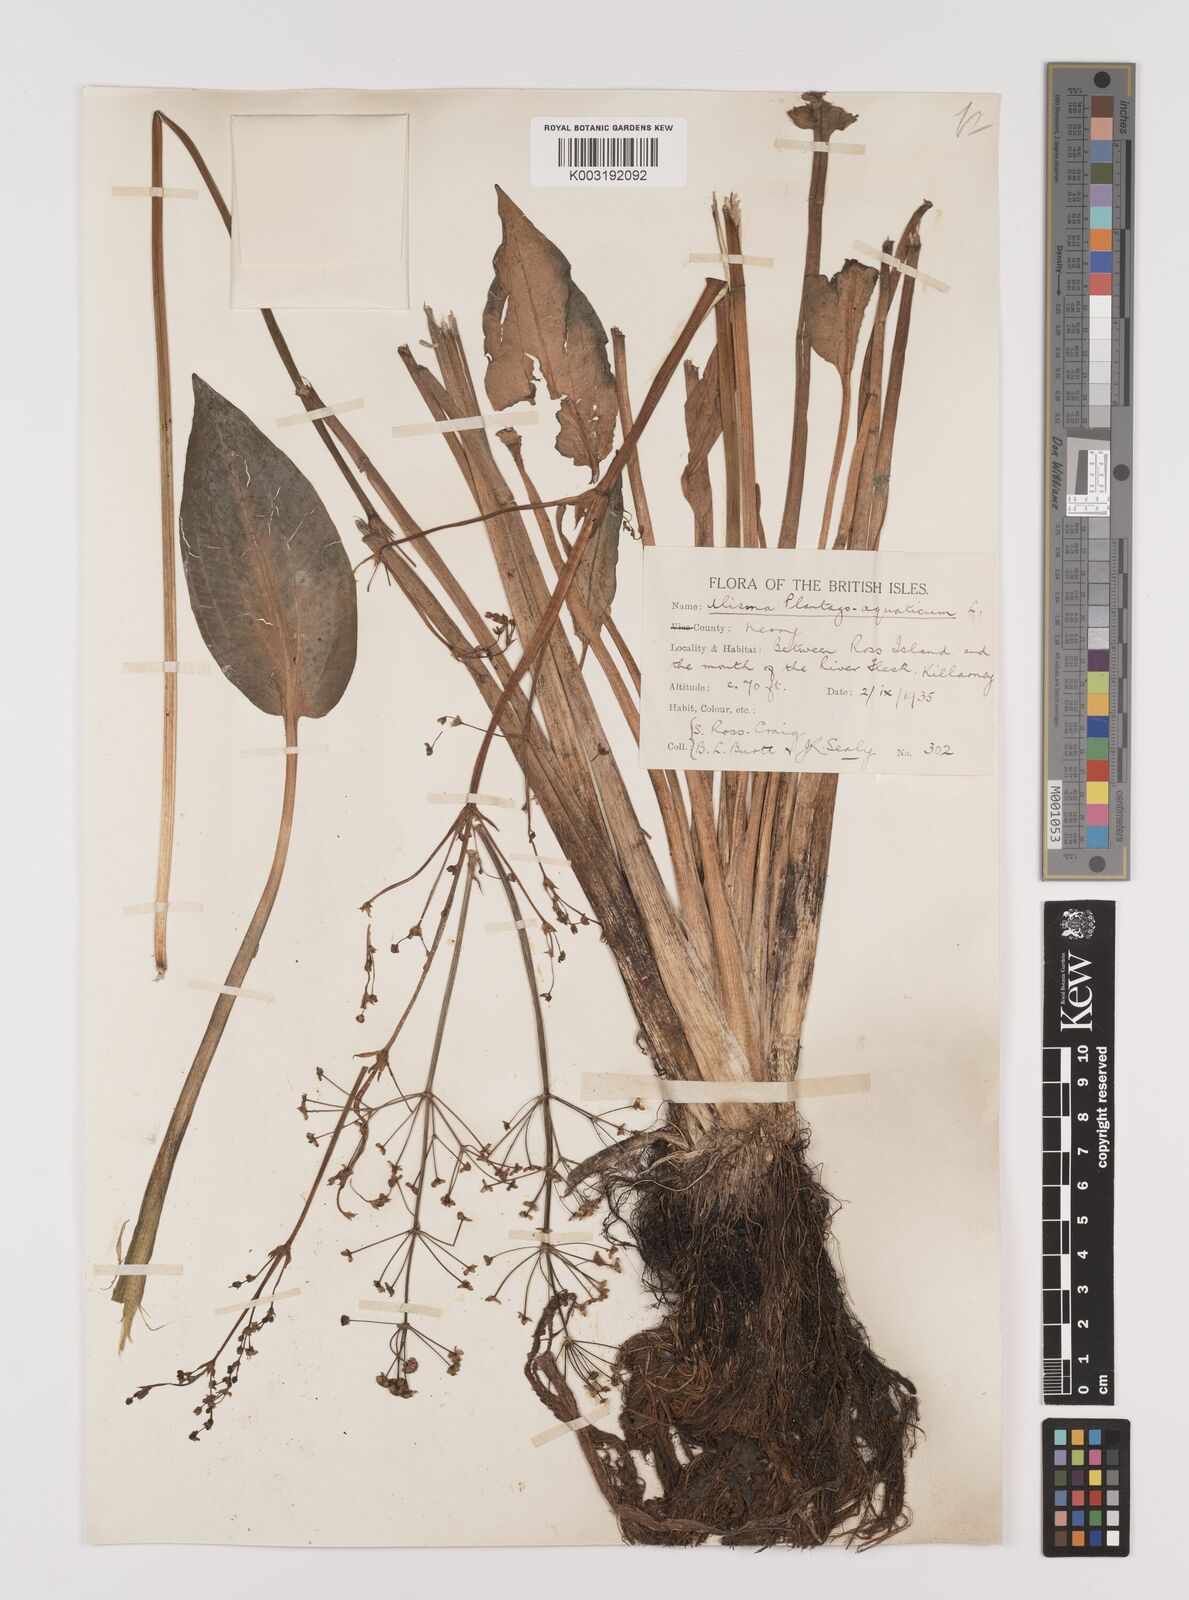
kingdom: Plantae
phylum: Tracheophyta
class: Liliopsida
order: Alismatales
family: Alismataceae
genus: Alisma
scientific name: Alisma plantago-aquatica
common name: Water-plantain
